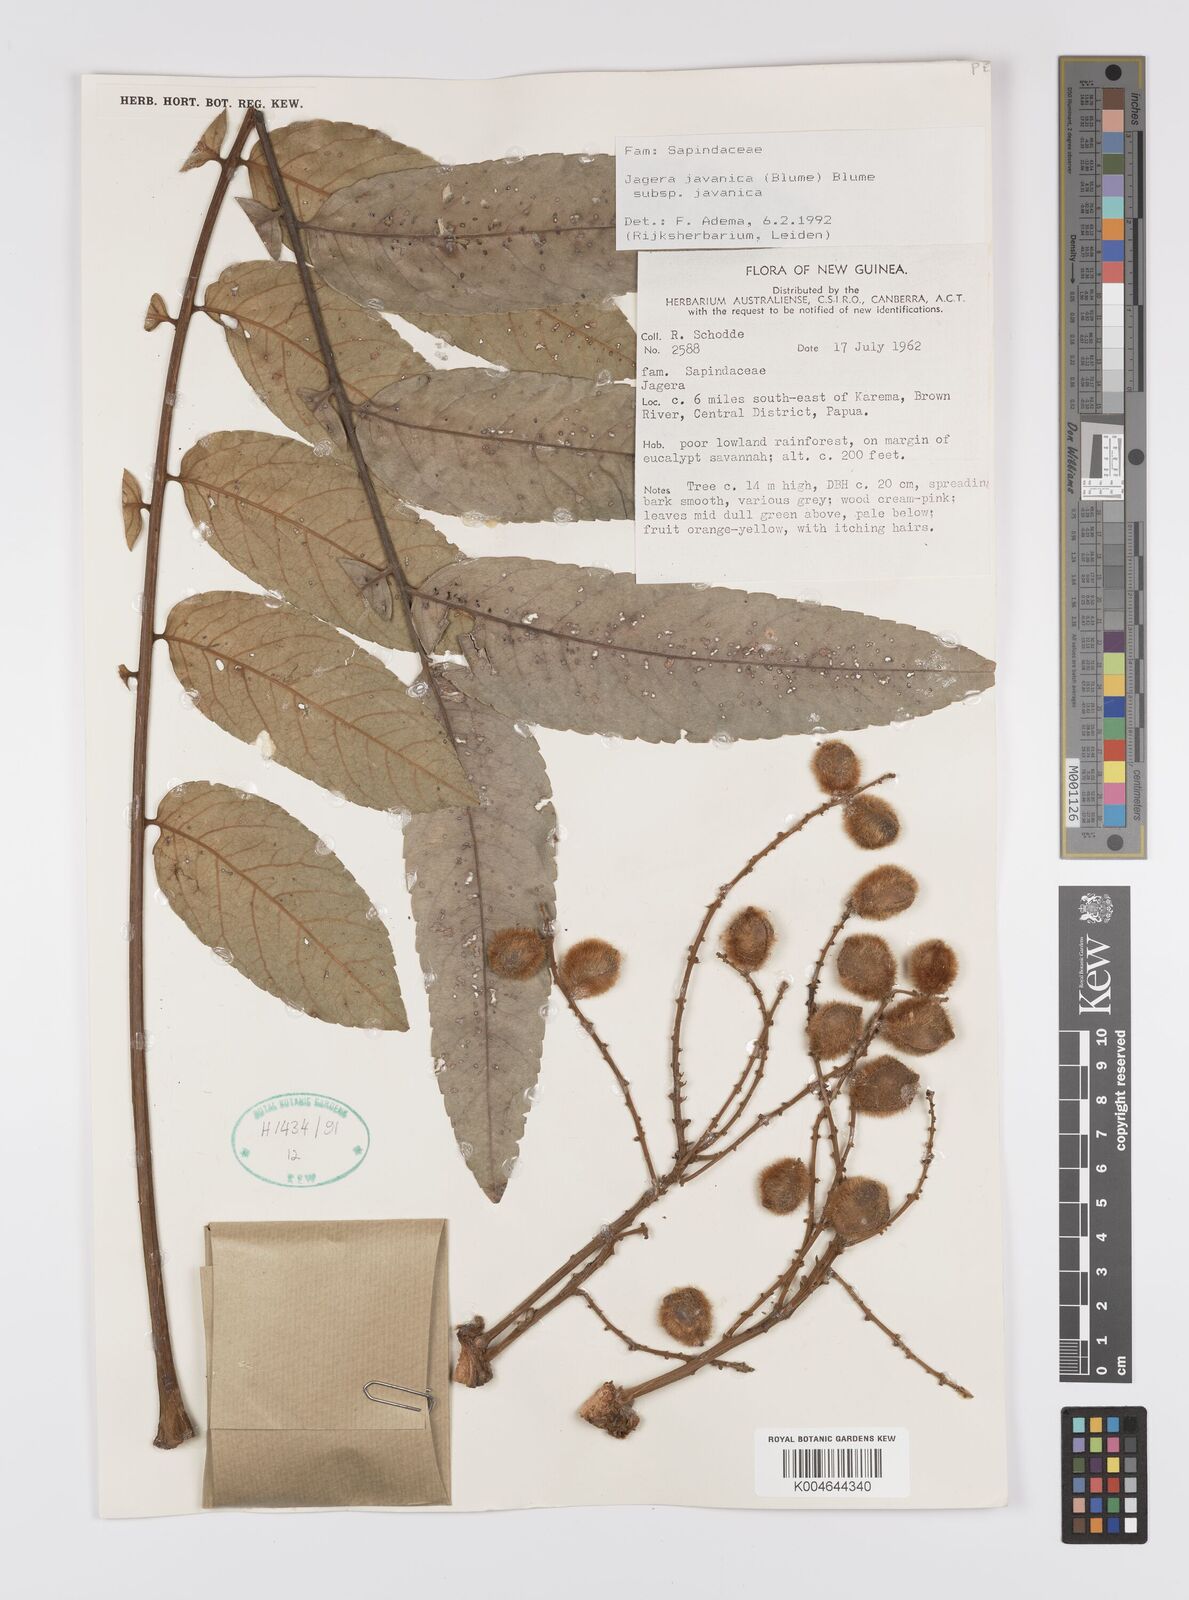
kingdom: Plantae
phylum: Tracheophyta
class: Magnoliopsida
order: Sapindales
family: Sapindaceae
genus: Jagera
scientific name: Jagera javanica
